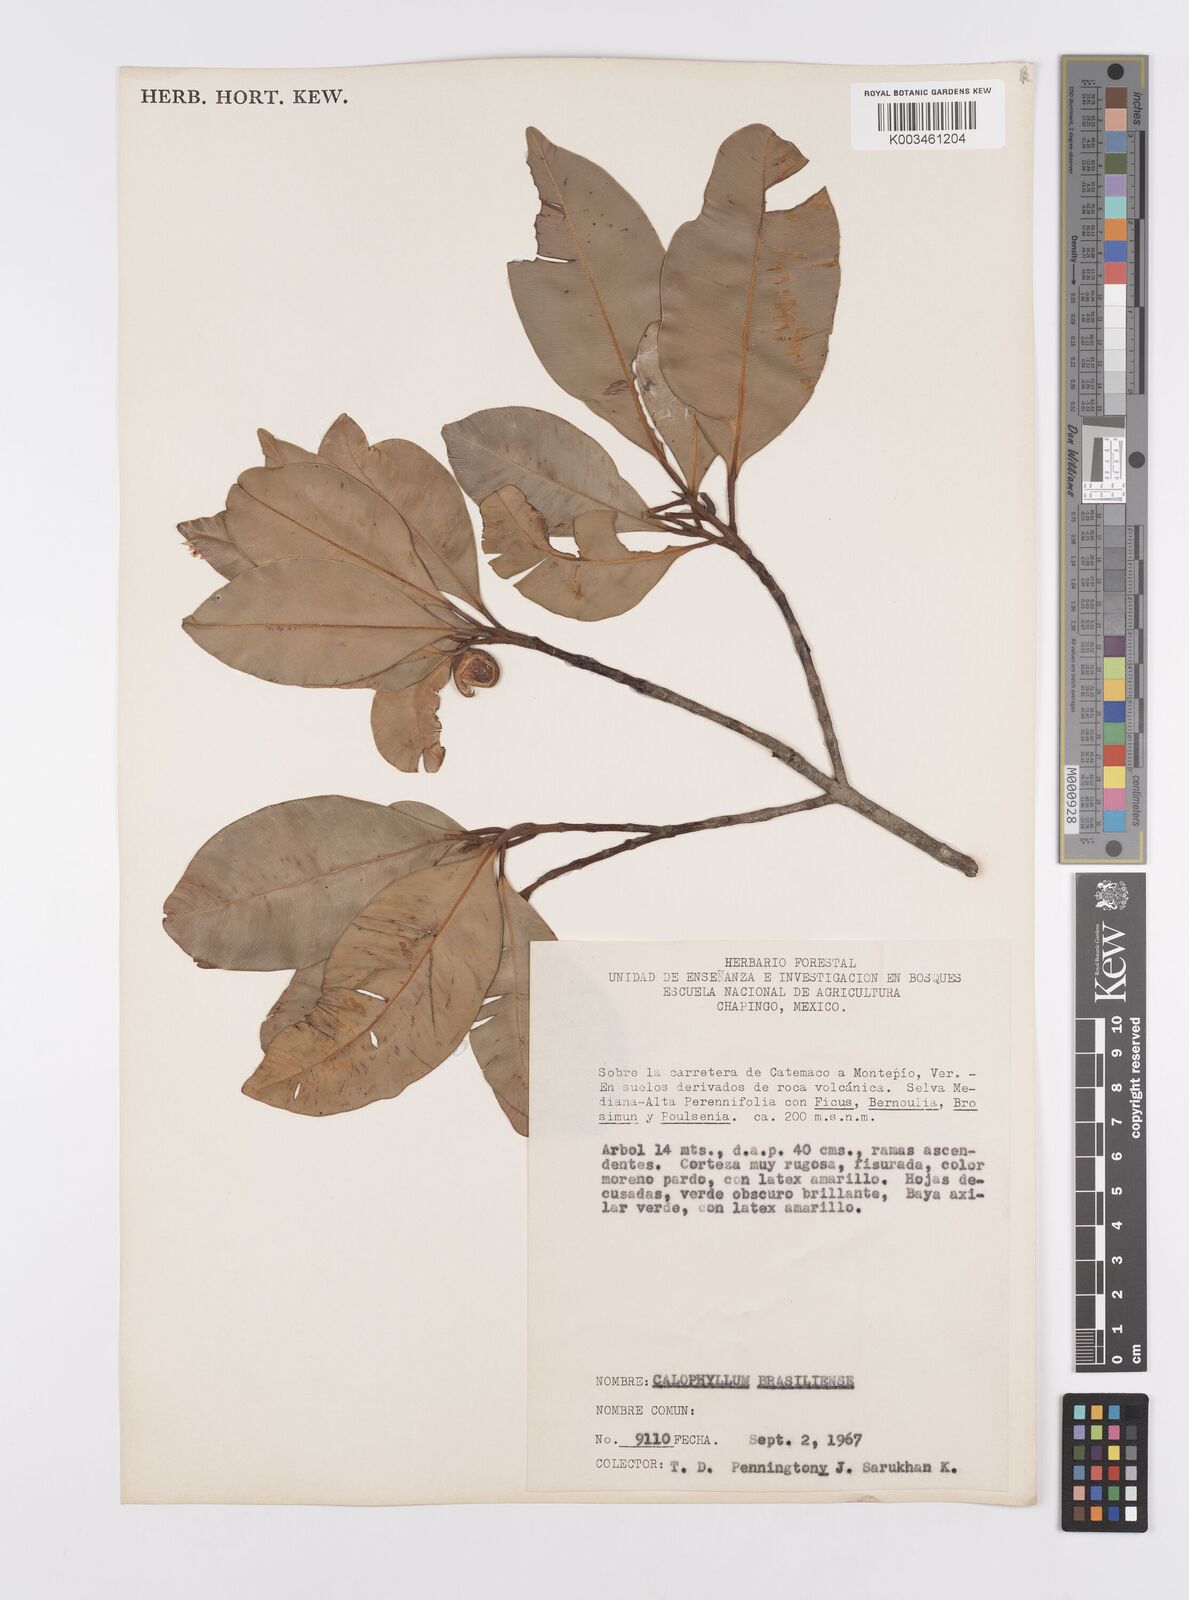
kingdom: Plantae
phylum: Tracheophyta
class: Magnoliopsida
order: Malpighiales
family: Calophyllaceae
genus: Calophyllum
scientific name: Calophyllum brasiliense
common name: Santa maria
